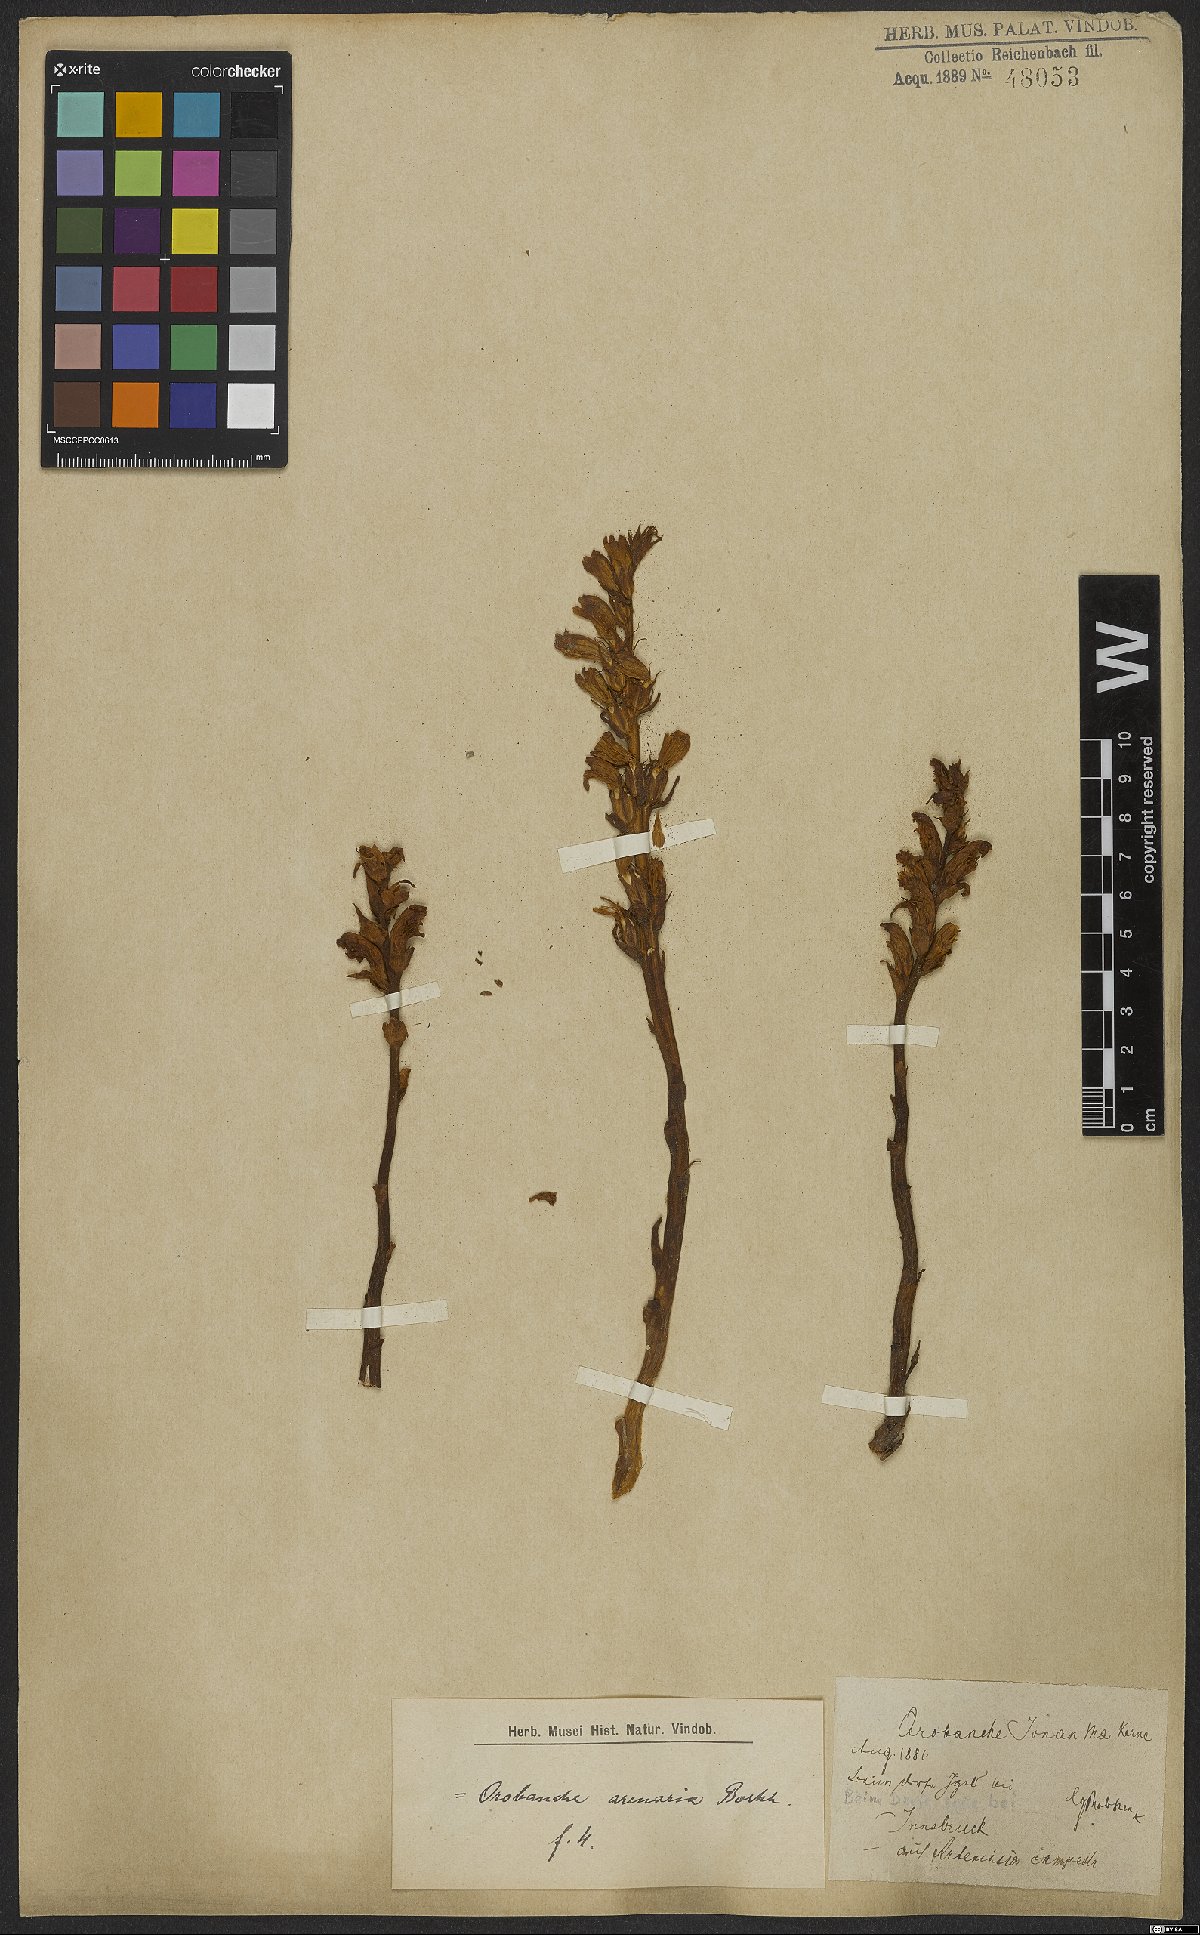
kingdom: Plantae
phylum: Tracheophyta
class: Magnoliopsida
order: Lamiales
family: Orobanchaceae
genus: Orobanche
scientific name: Orobanche
